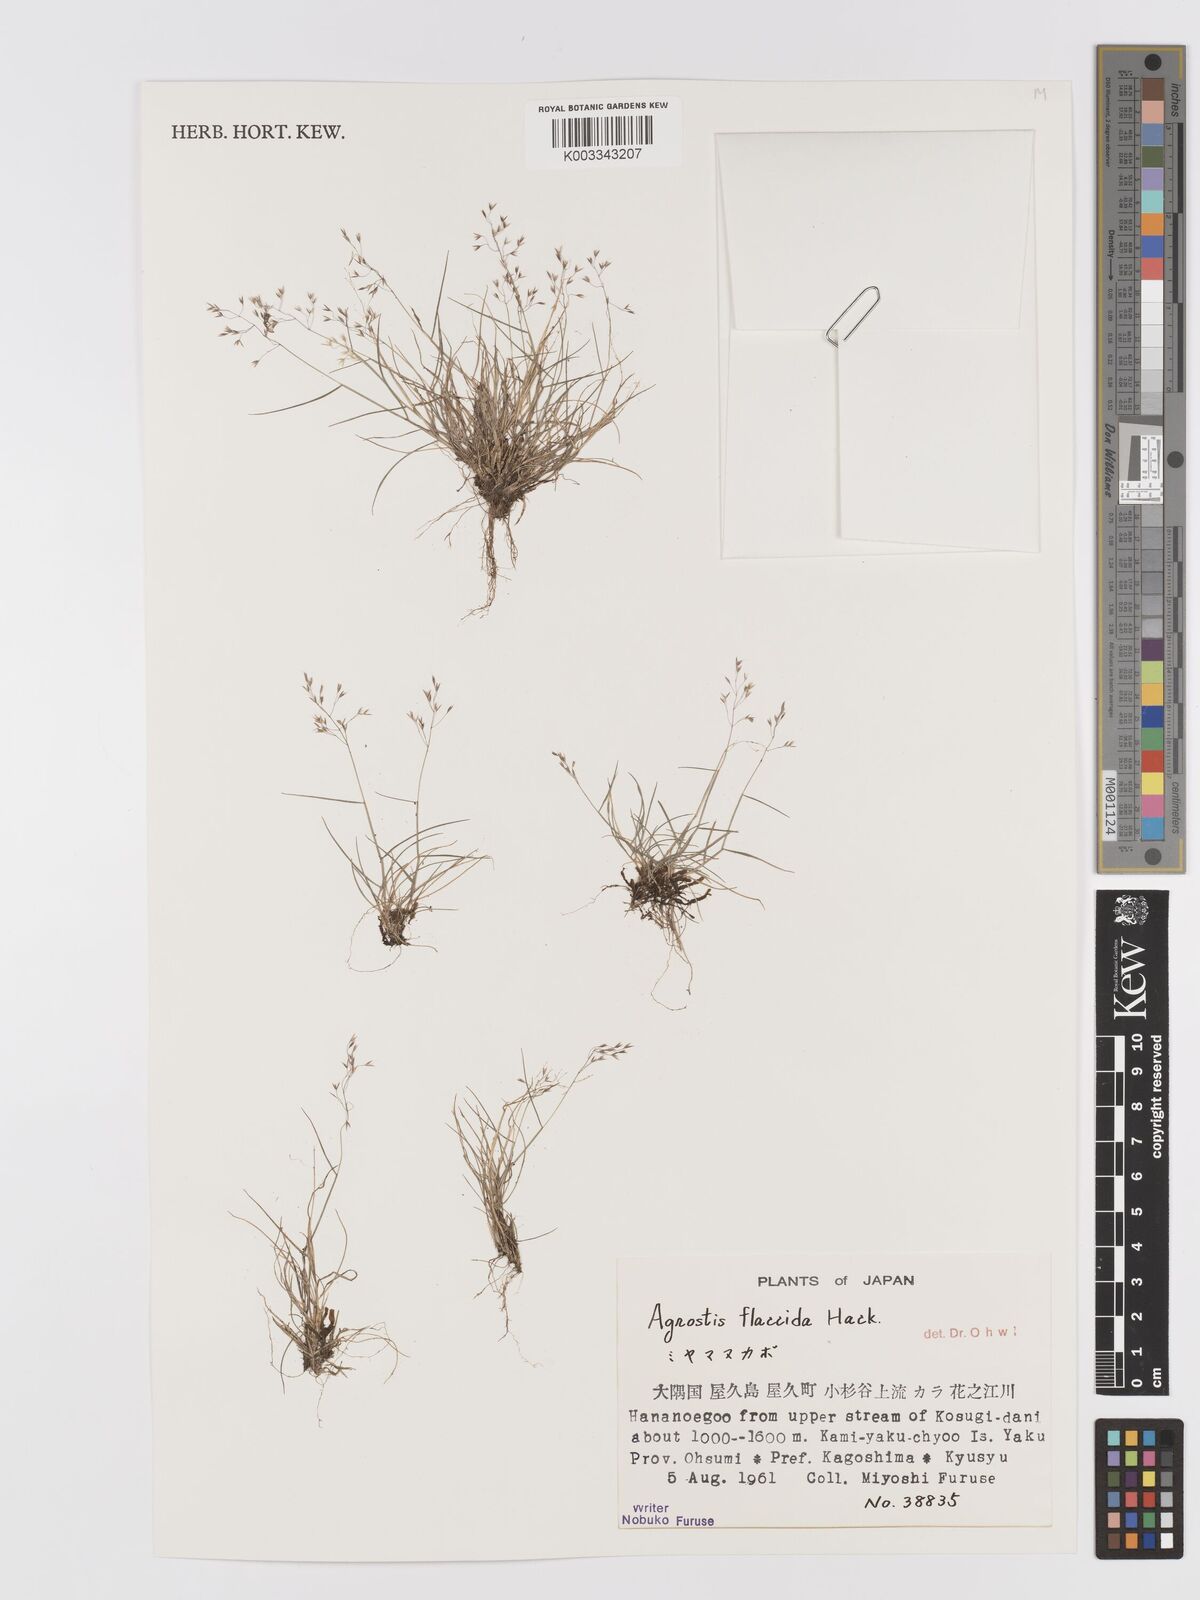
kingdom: Plantae
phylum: Tracheophyta
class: Liliopsida
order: Poales
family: Poaceae
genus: Agrostis
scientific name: Agrostis flaccida
